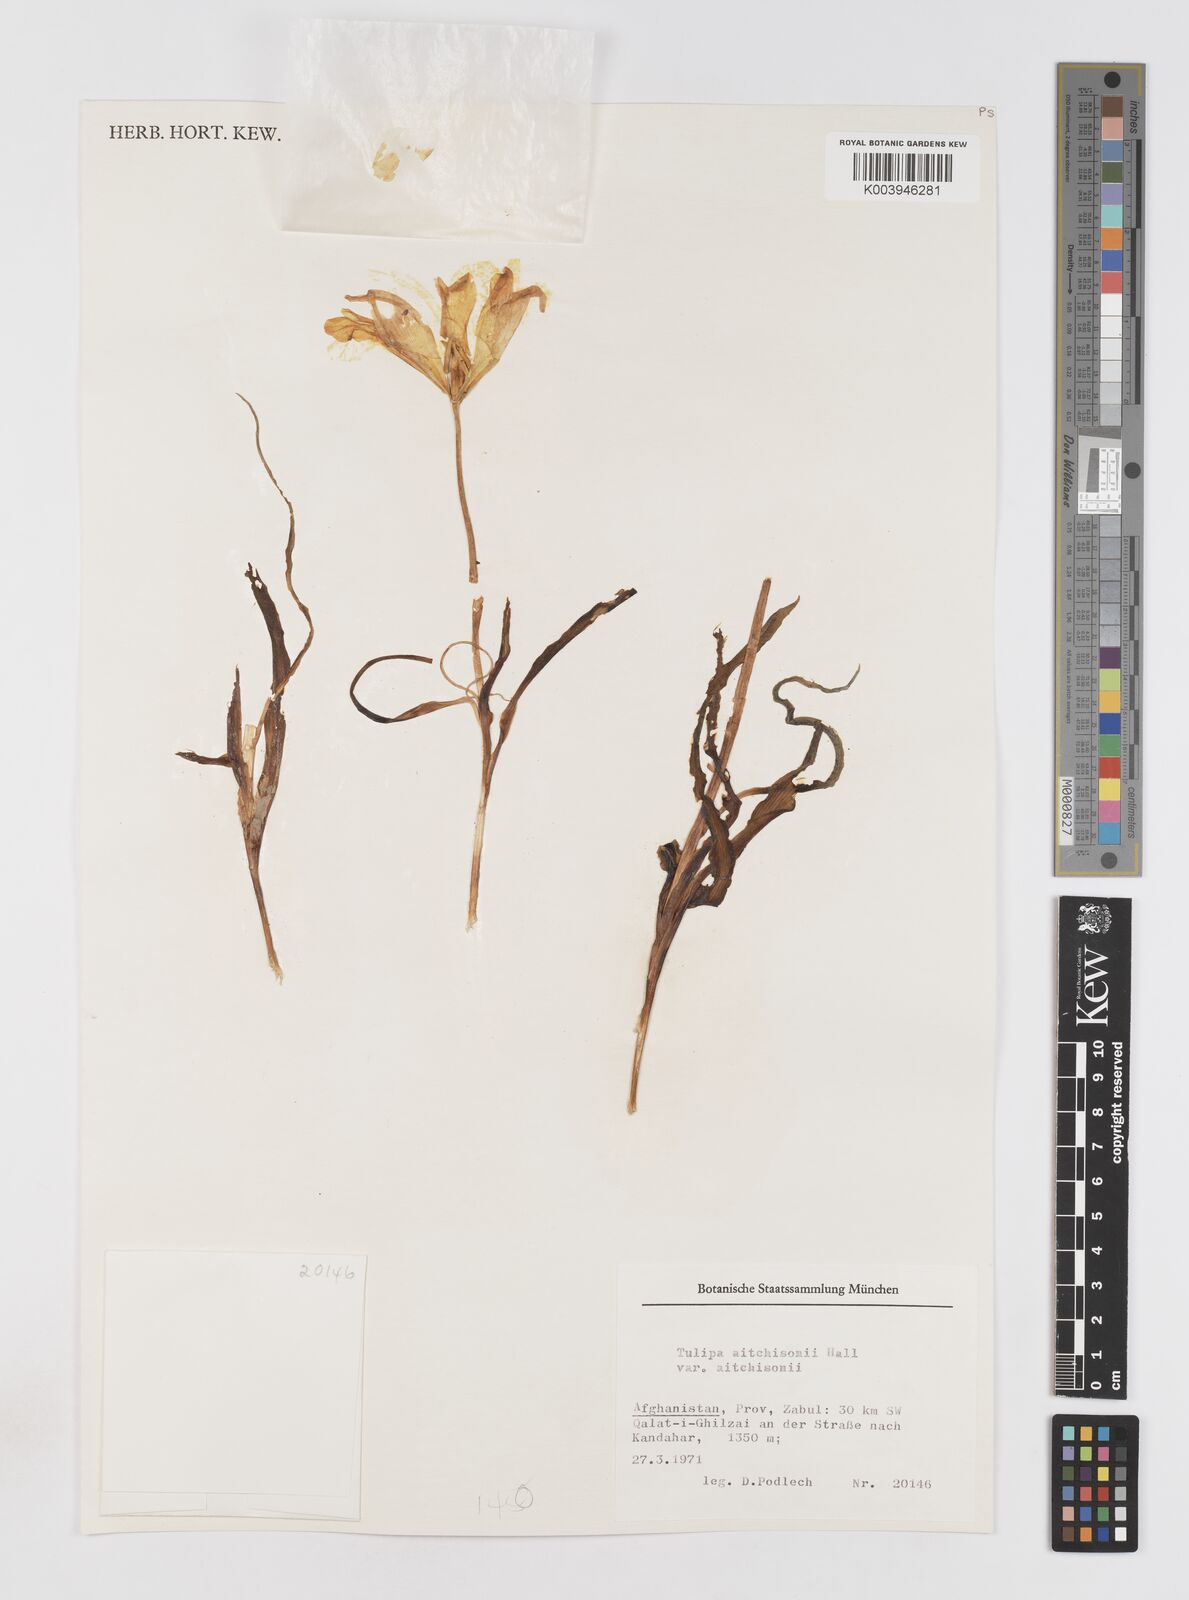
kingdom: Plantae
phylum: Tracheophyta
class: Liliopsida
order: Liliales
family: Liliaceae
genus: Tulipa
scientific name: Tulipa clusiana
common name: Lady tulip
